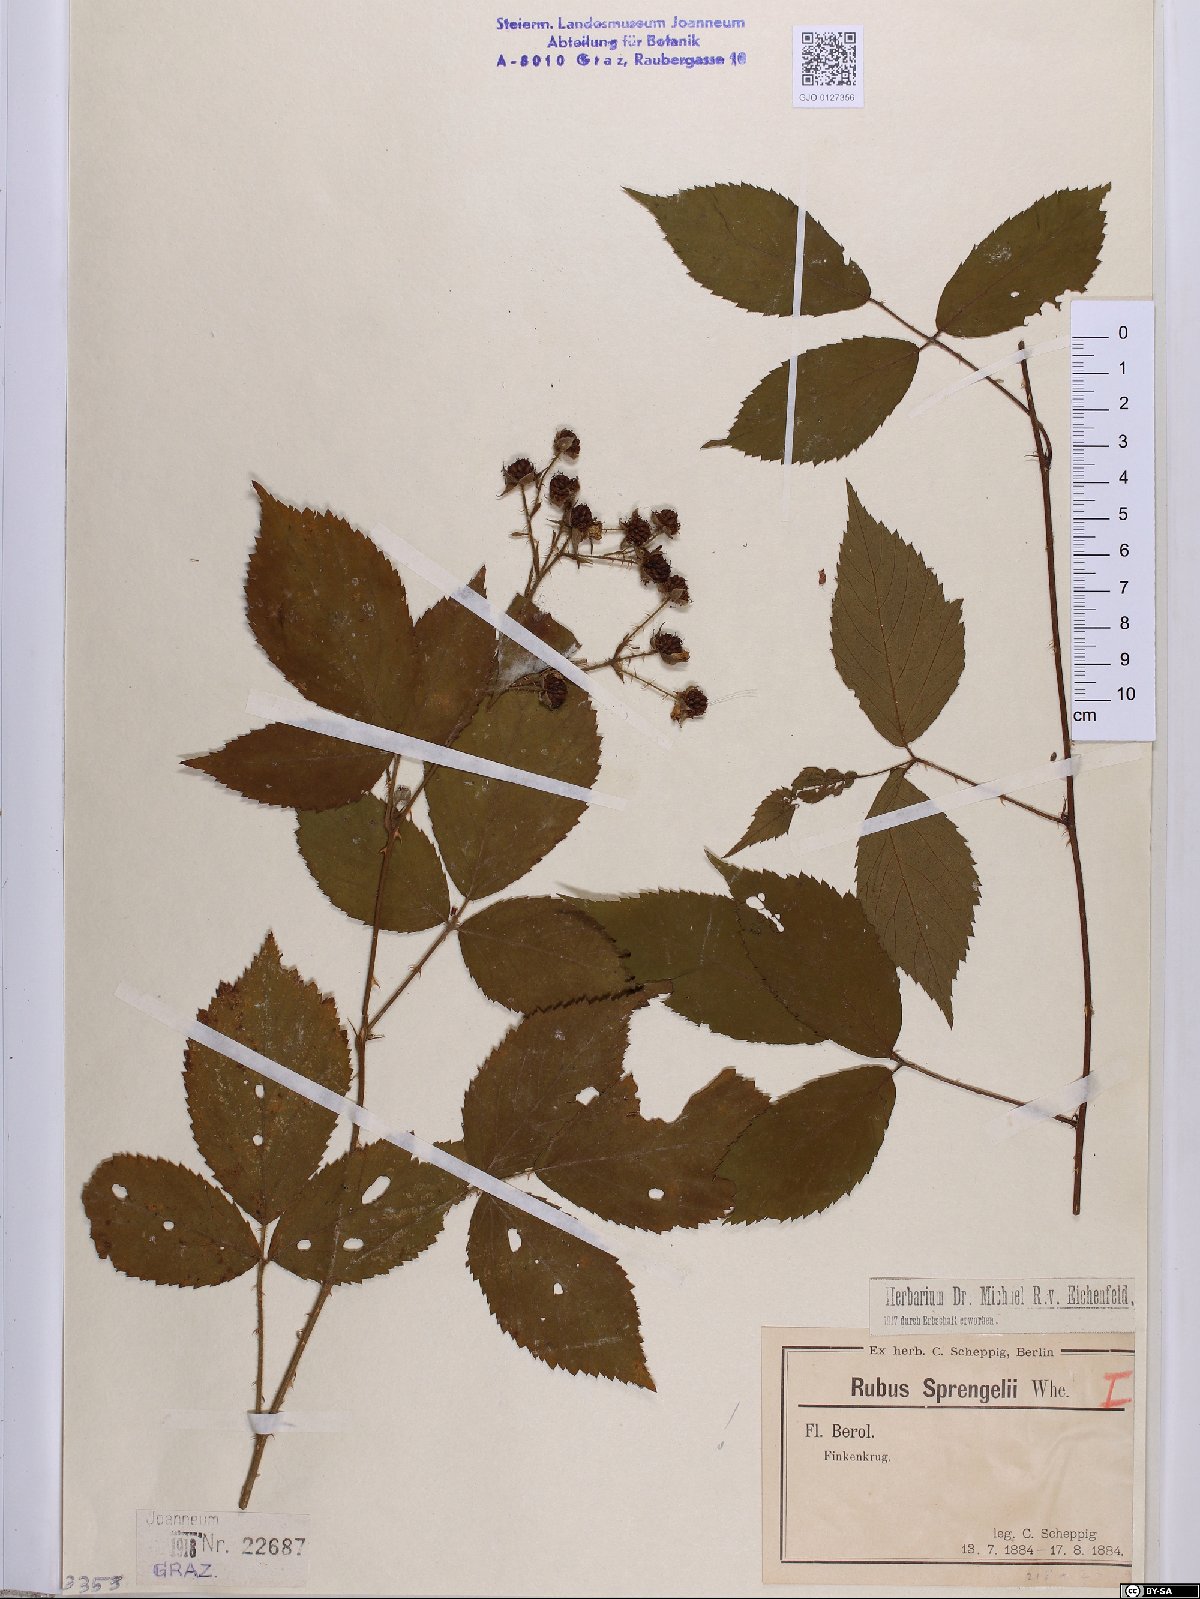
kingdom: Plantae
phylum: Tracheophyta
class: Magnoliopsida
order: Rosales
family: Rosaceae
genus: Rubus
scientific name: Rubus sprengelii
